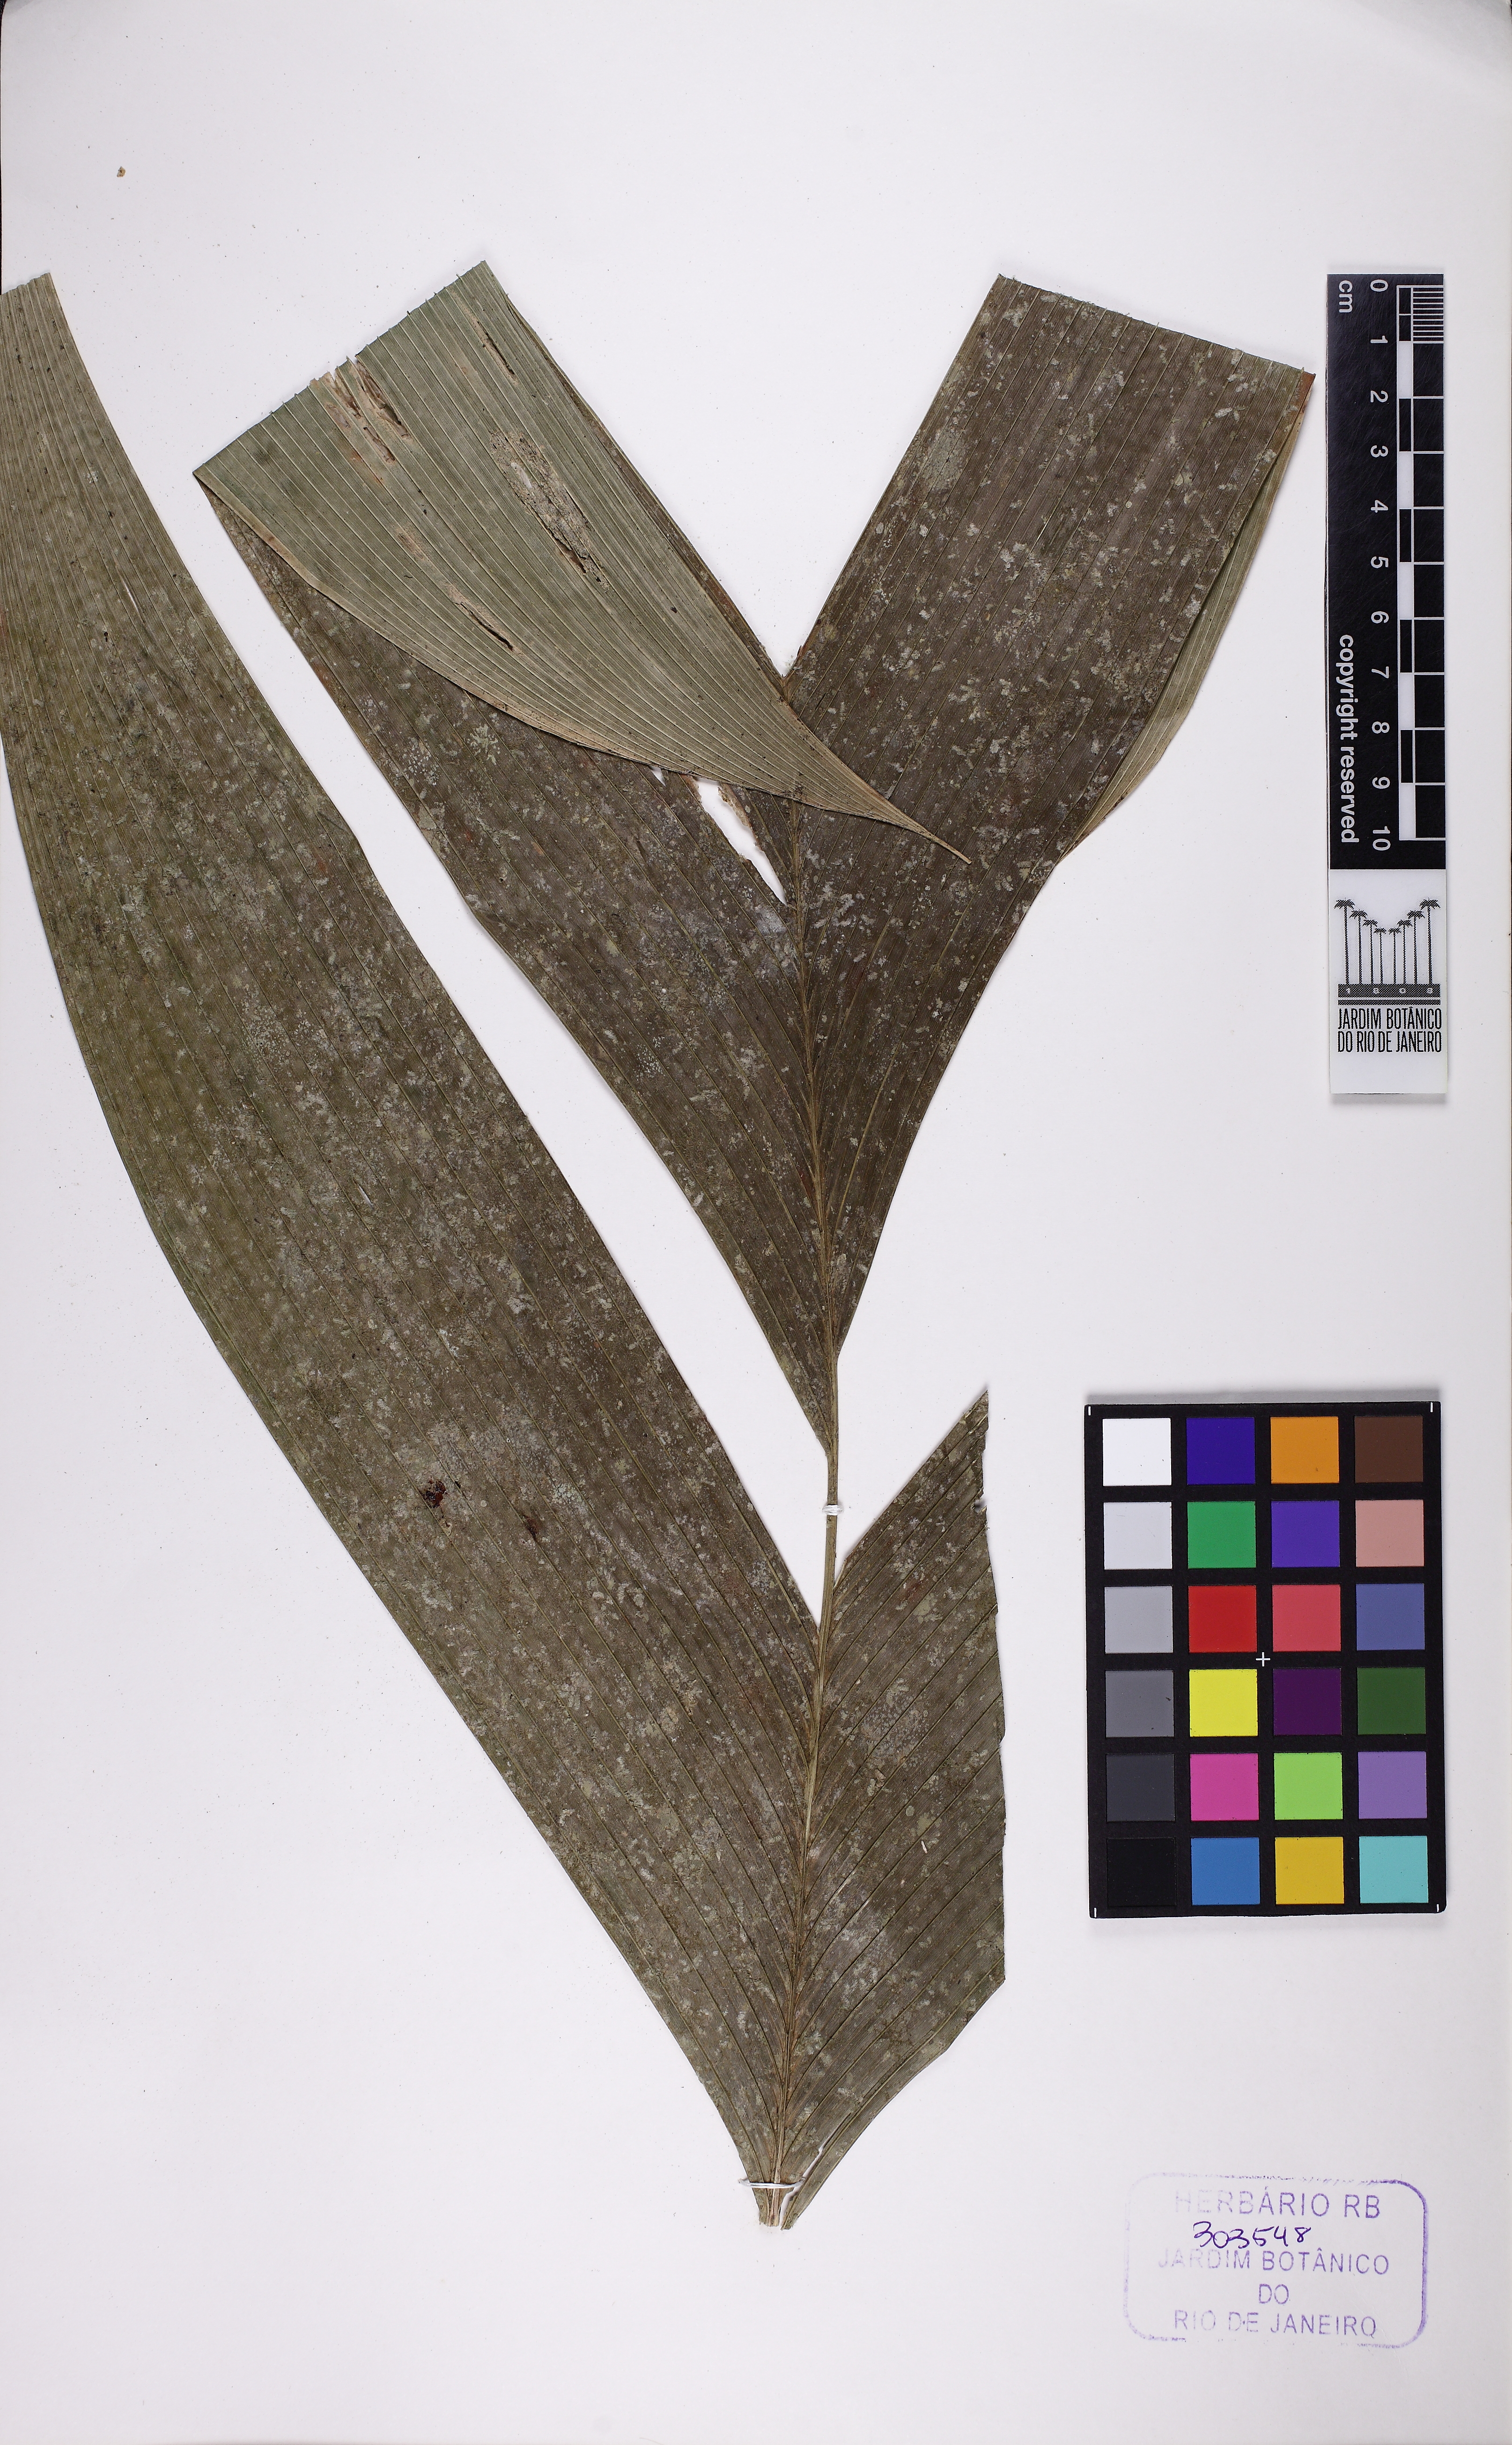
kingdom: Plantae
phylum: Tracheophyta
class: Liliopsida
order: Arecales
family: Arecaceae
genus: Geonoma
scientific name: Geonoma schottiana
